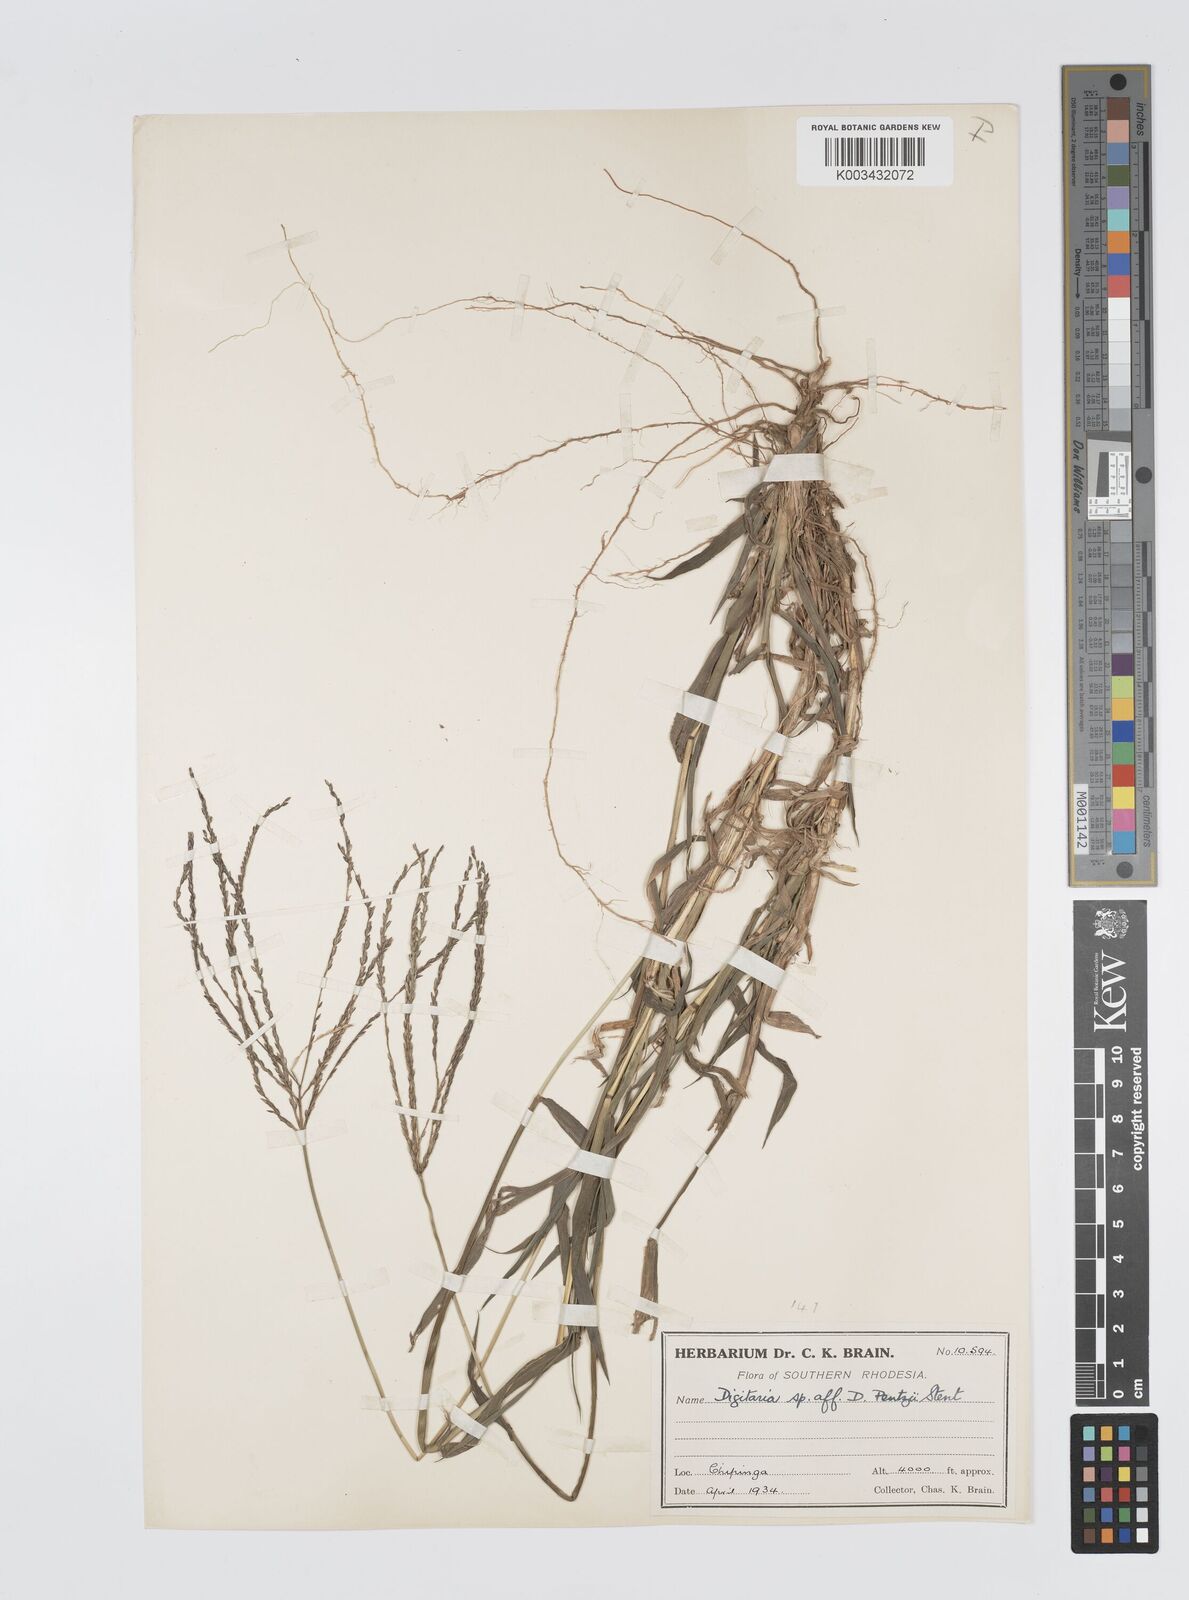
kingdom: Plantae
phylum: Tracheophyta
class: Liliopsida
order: Poales
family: Poaceae
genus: Digitaria
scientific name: Digitaria milanjiana
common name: Madagascar crabgrass
